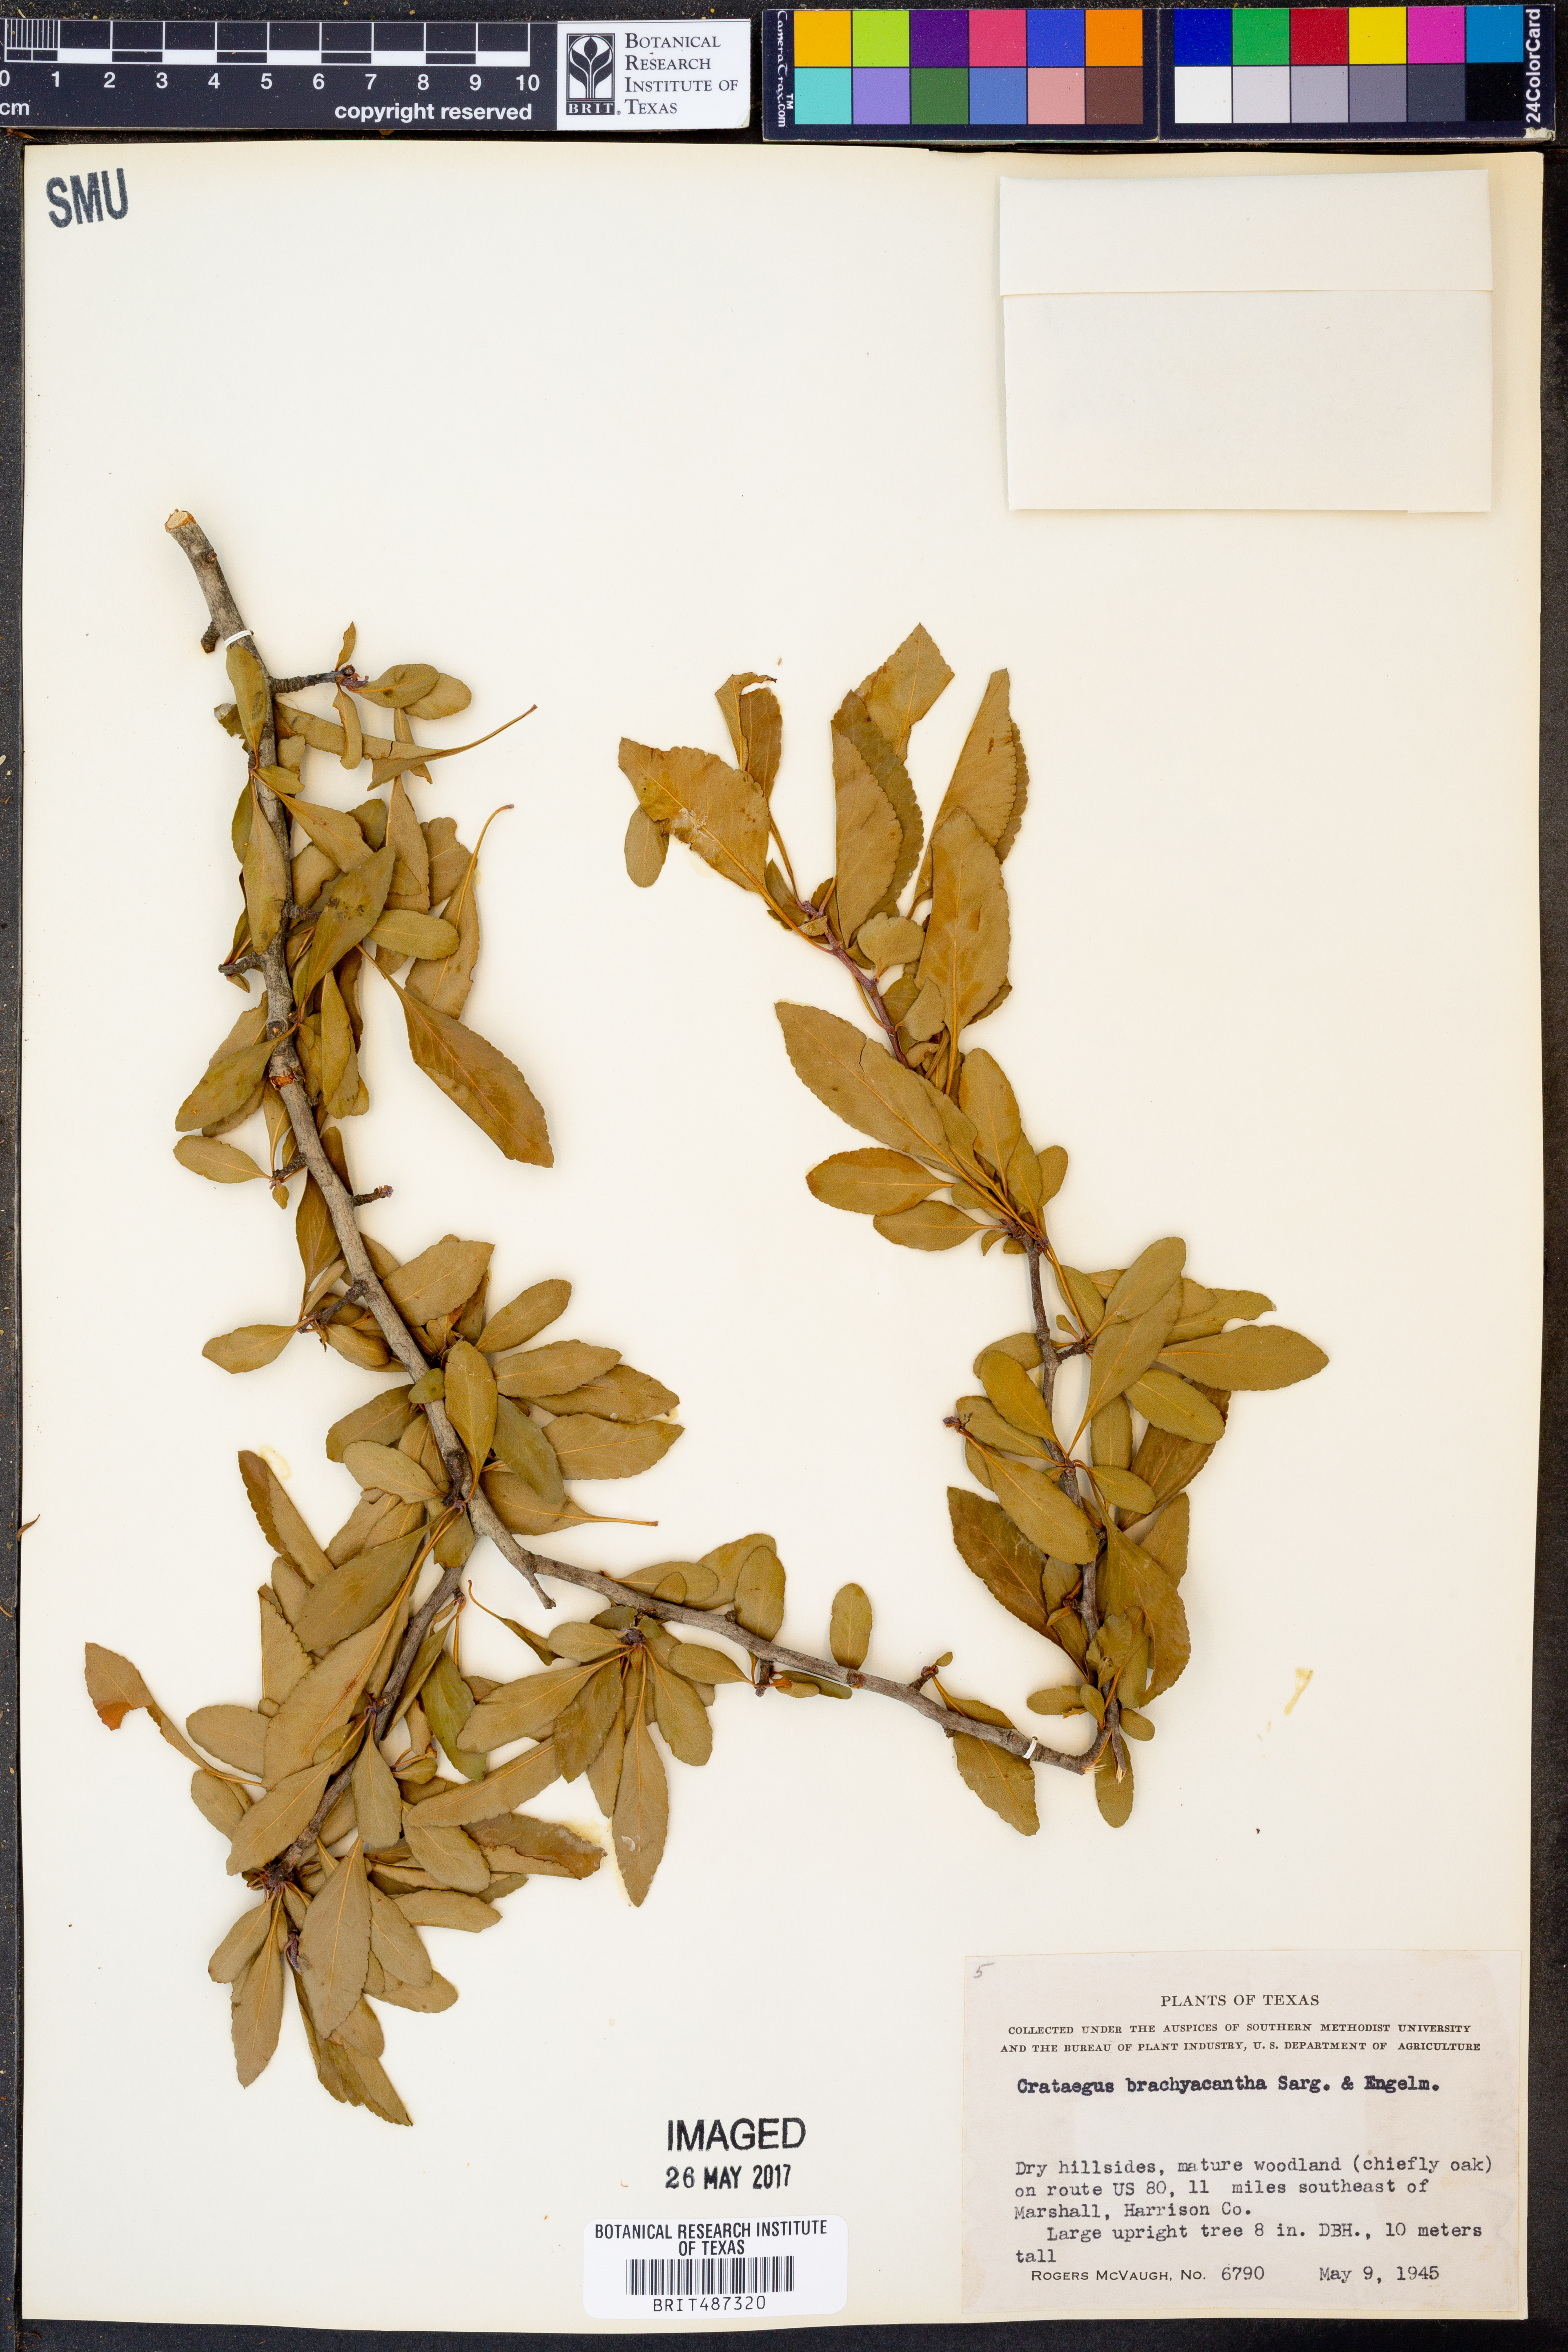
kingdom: Plantae
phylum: Tracheophyta
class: Magnoliopsida
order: Rosales
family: Rosaceae
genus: Crataegus
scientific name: Crataegus brachyacantha
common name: Blueberry-hawthorn
